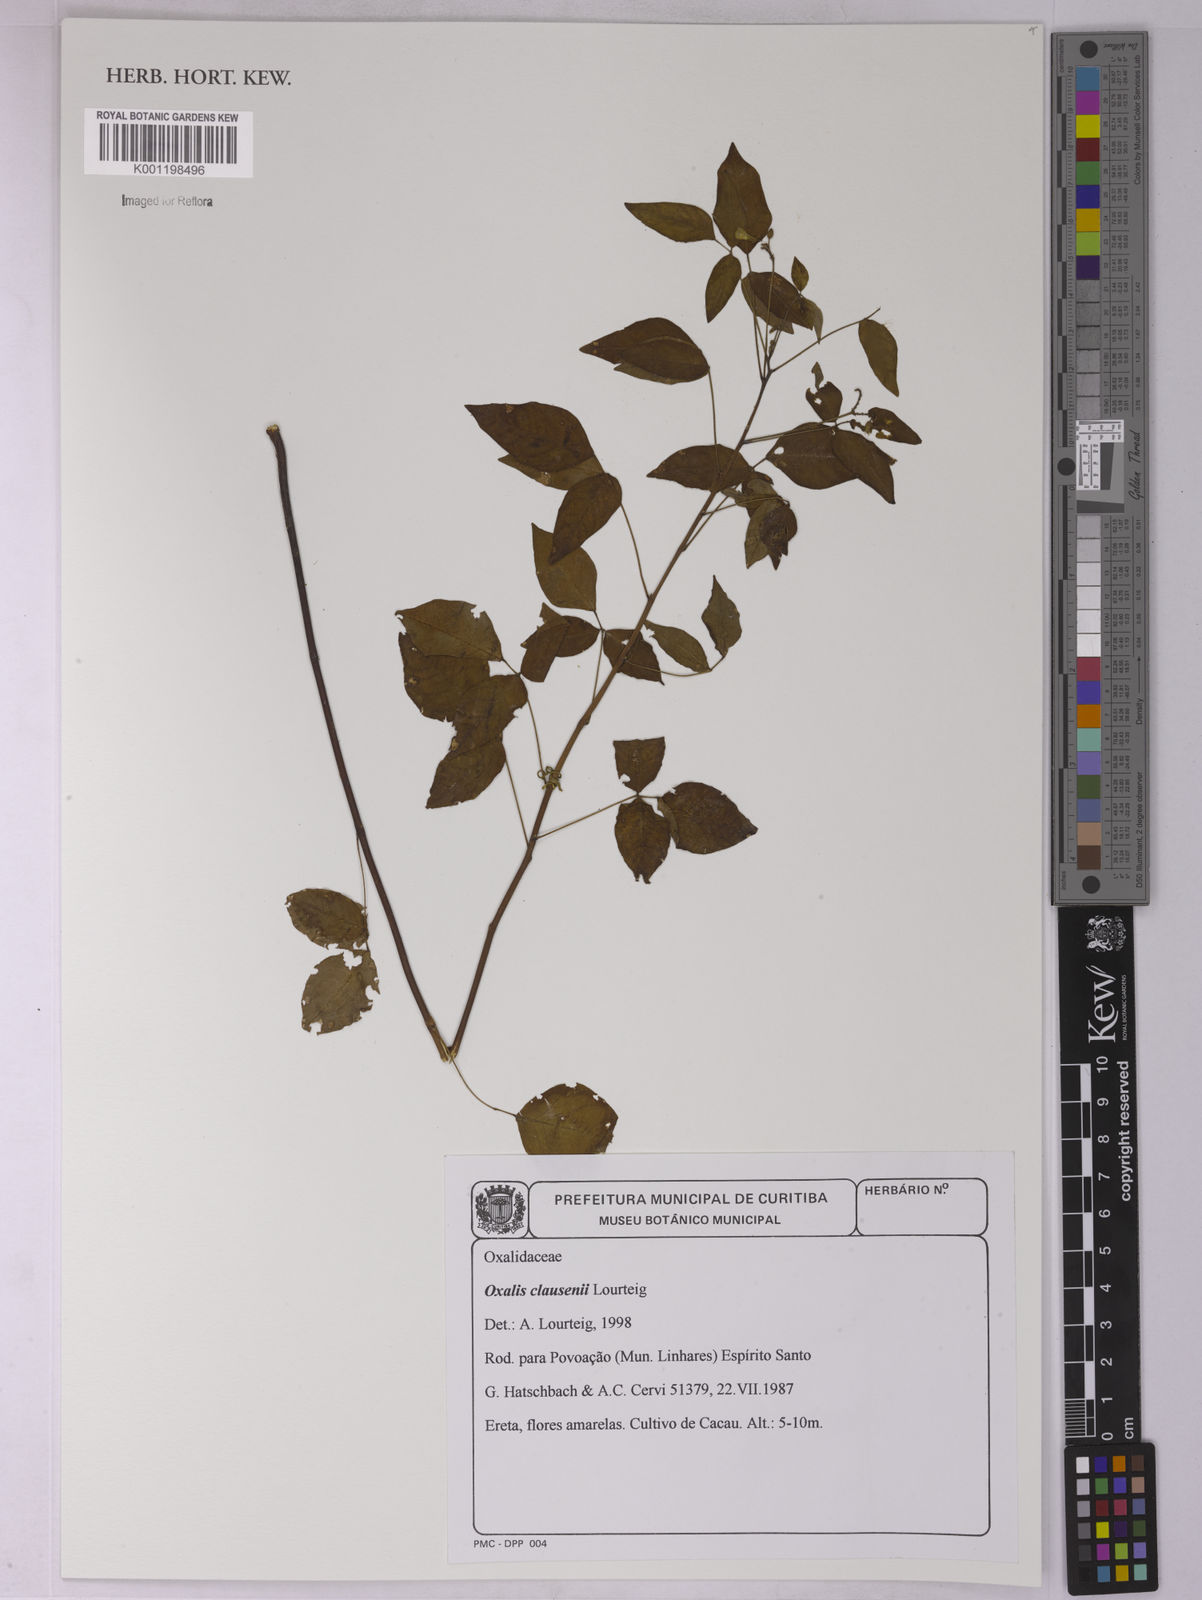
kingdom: Plantae
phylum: Tracheophyta
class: Magnoliopsida
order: Oxalidales
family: Oxalidaceae
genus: Oxalis
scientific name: Oxalis clausenii
